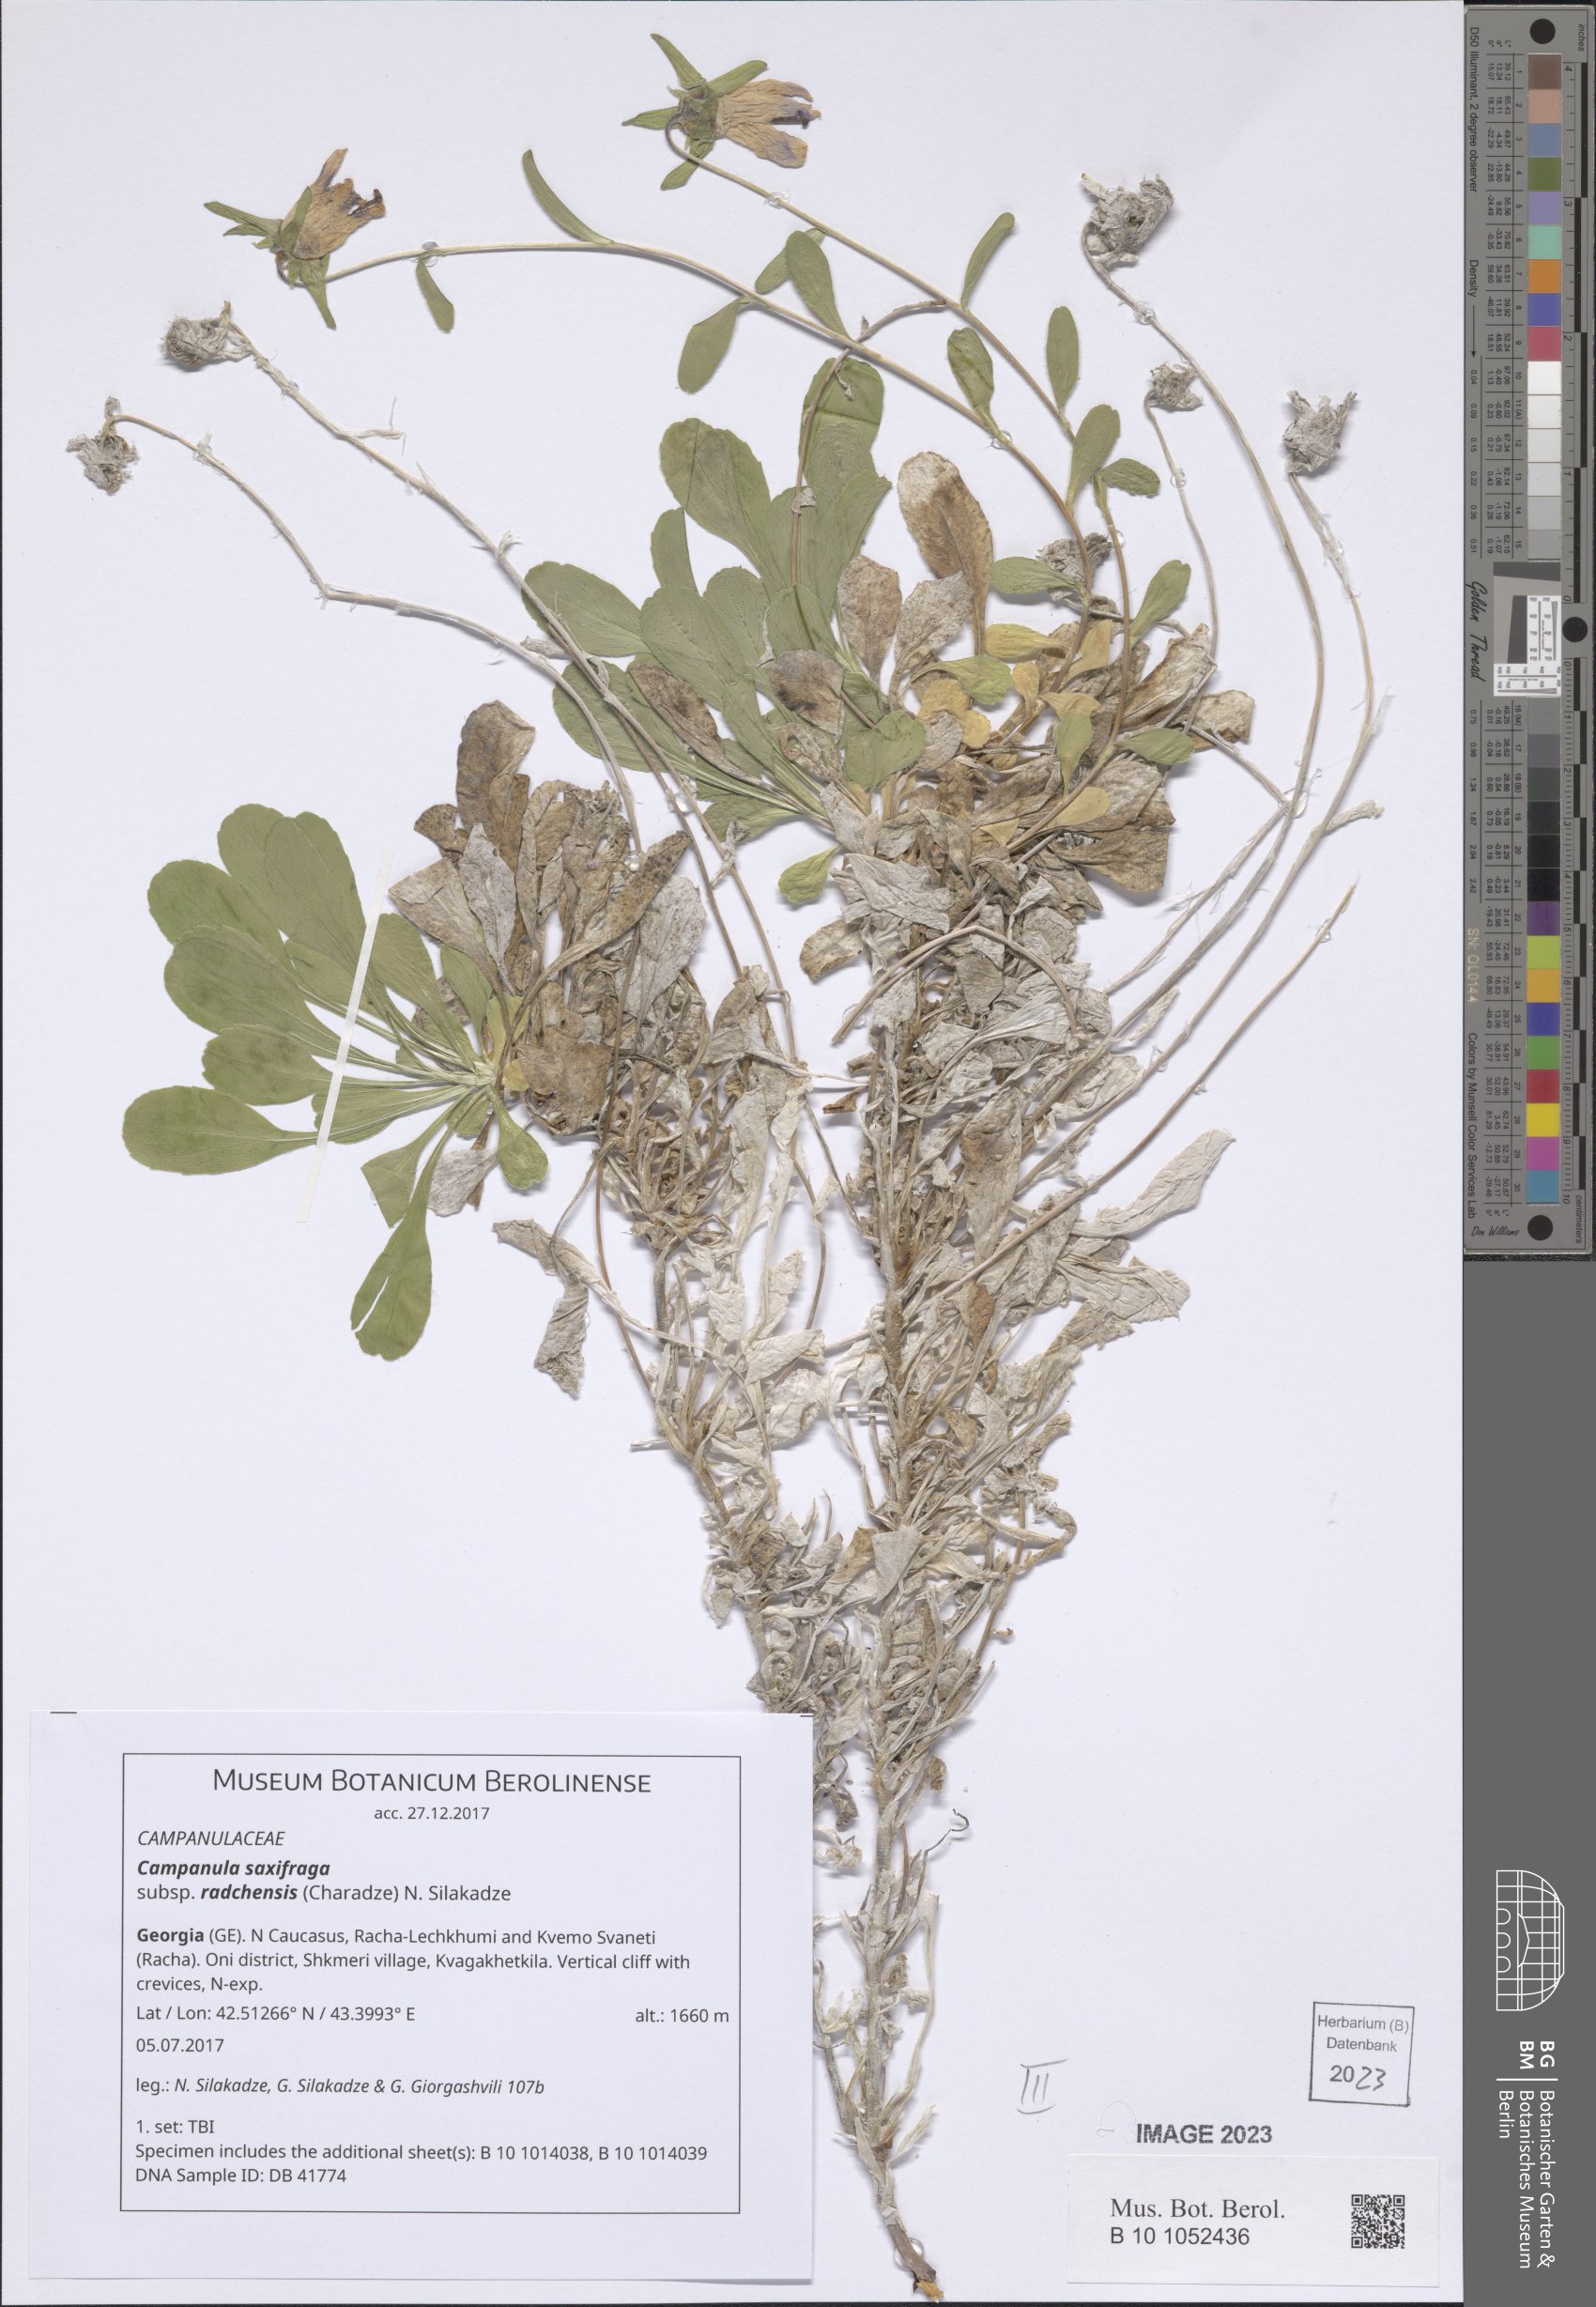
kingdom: Plantae
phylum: Tracheophyta
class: Magnoliopsida
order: Asterales
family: Campanulaceae
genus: Campanula
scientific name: Campanula saxifraga
